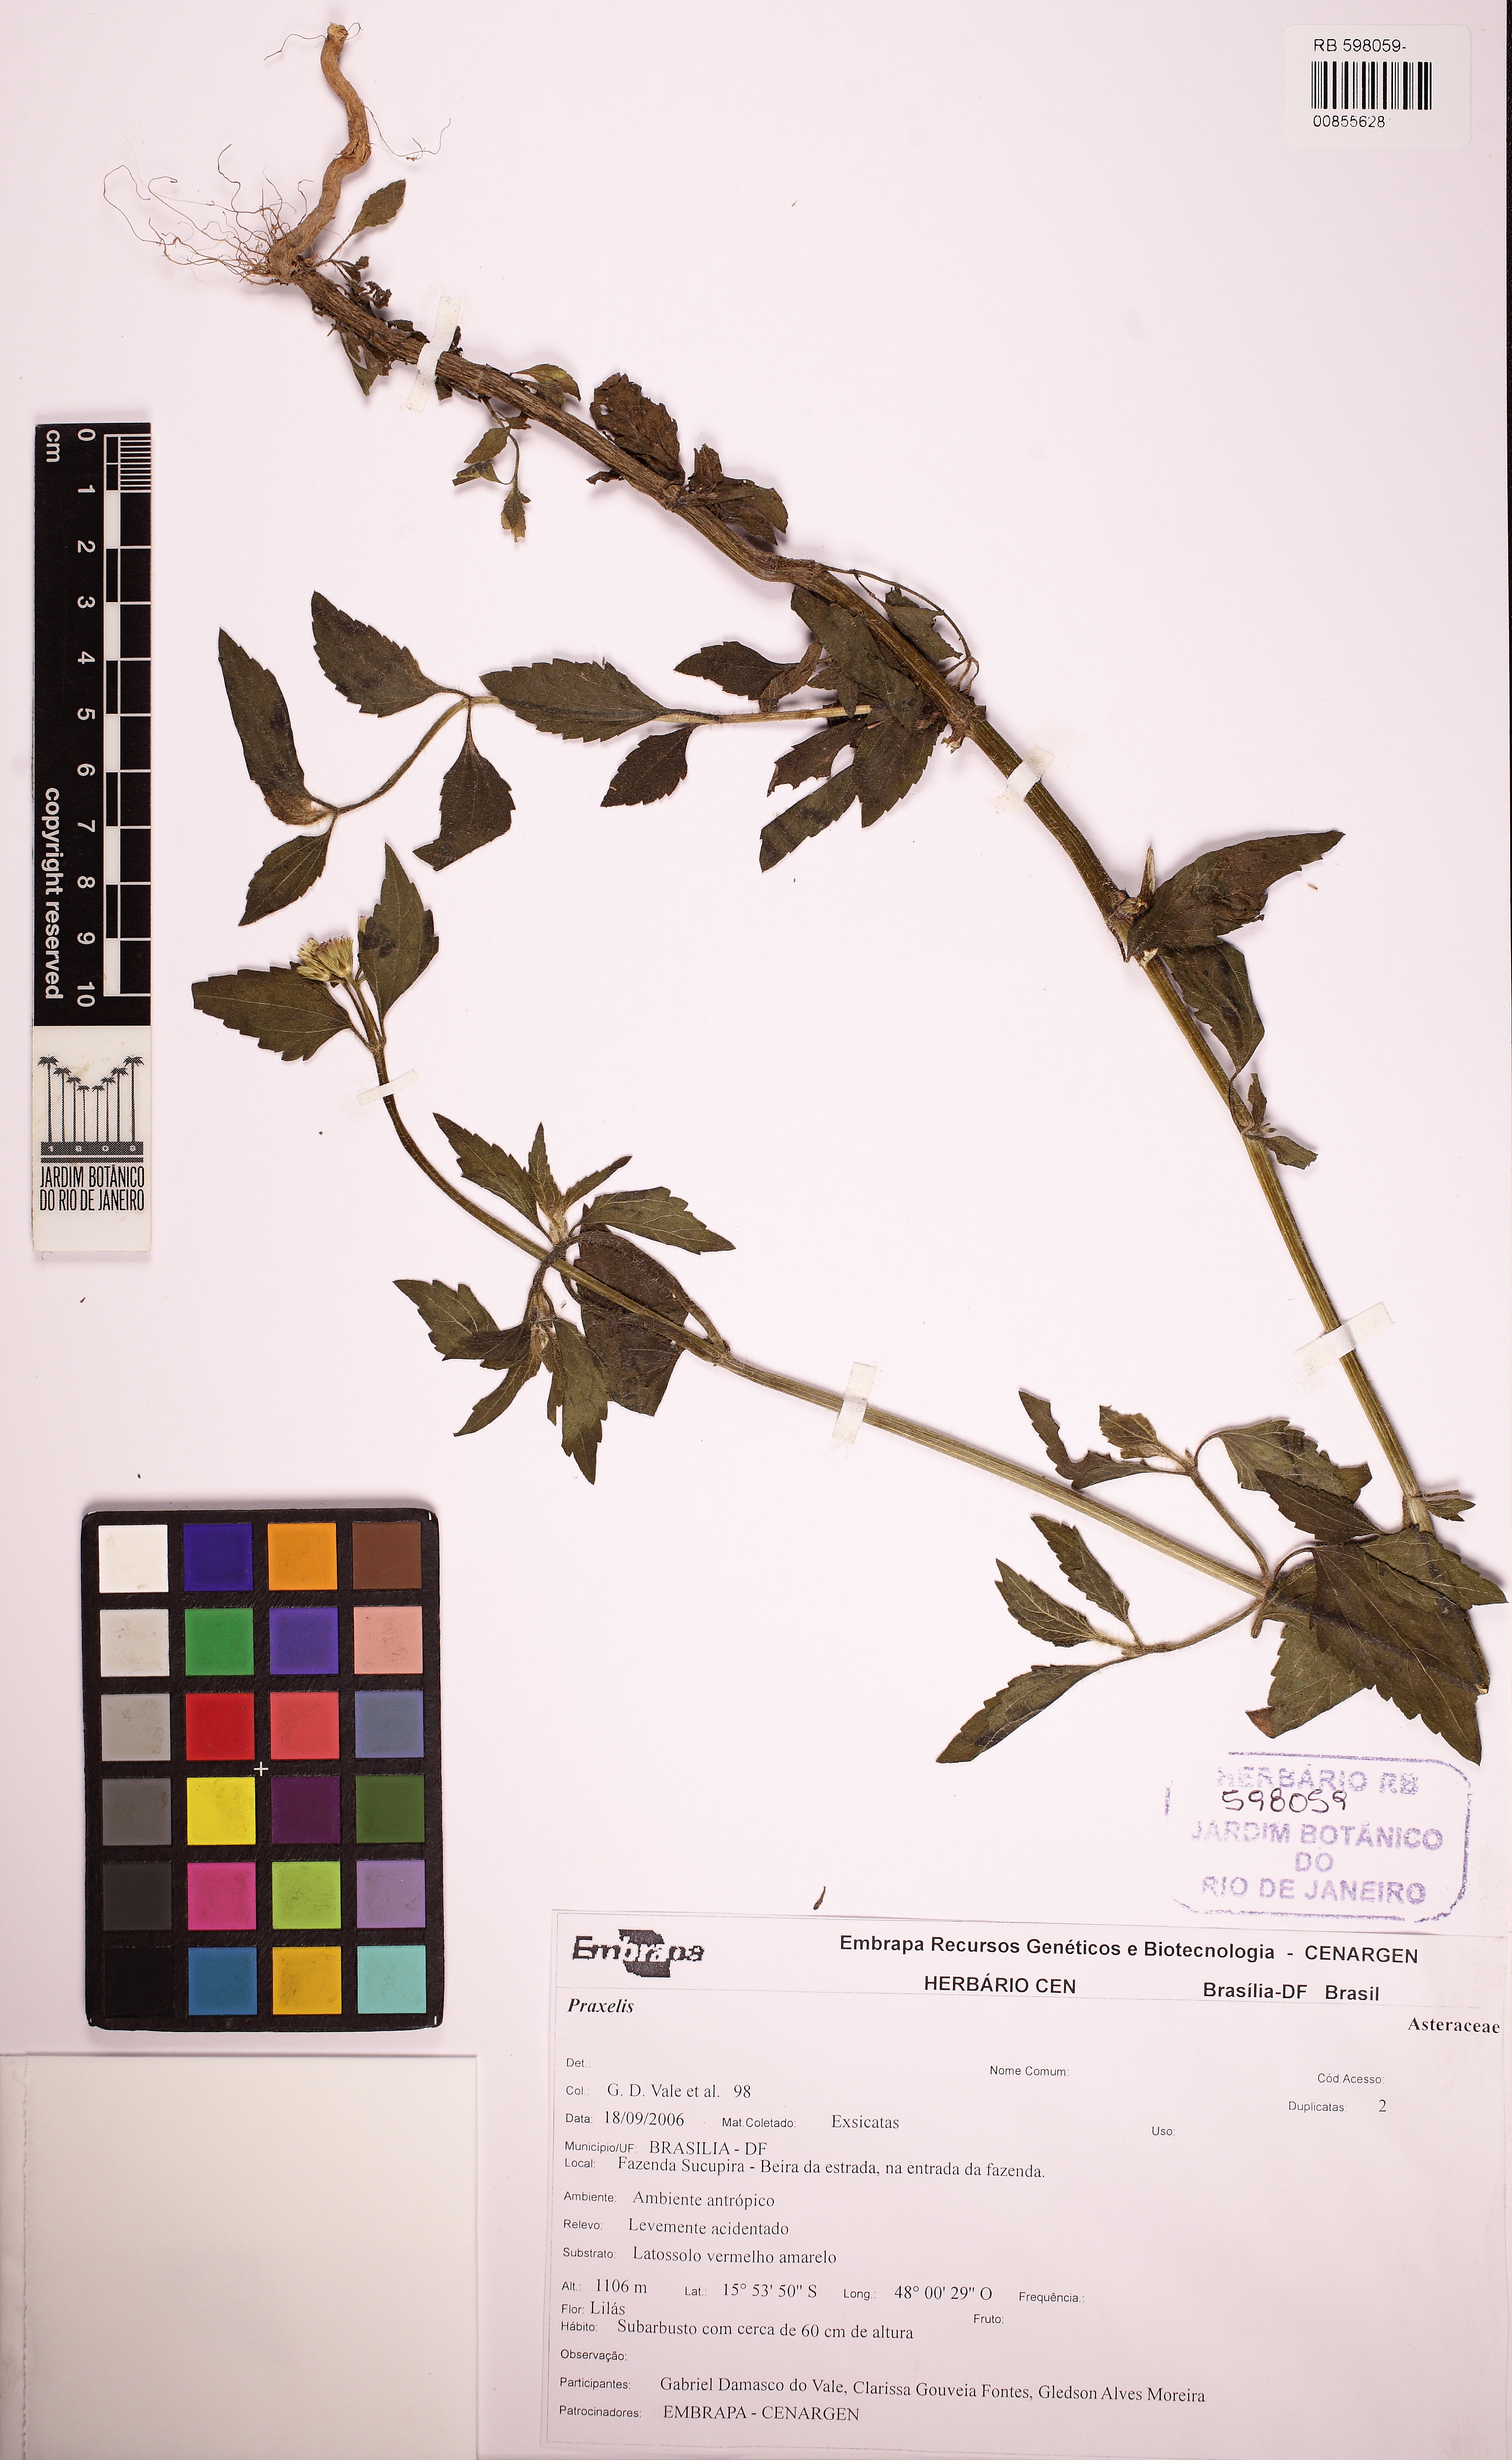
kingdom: Plantae
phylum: Tracheophyta
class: Magnoliopsida
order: Asterales
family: Asteraceae
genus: Praxelis
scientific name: Praxelis
